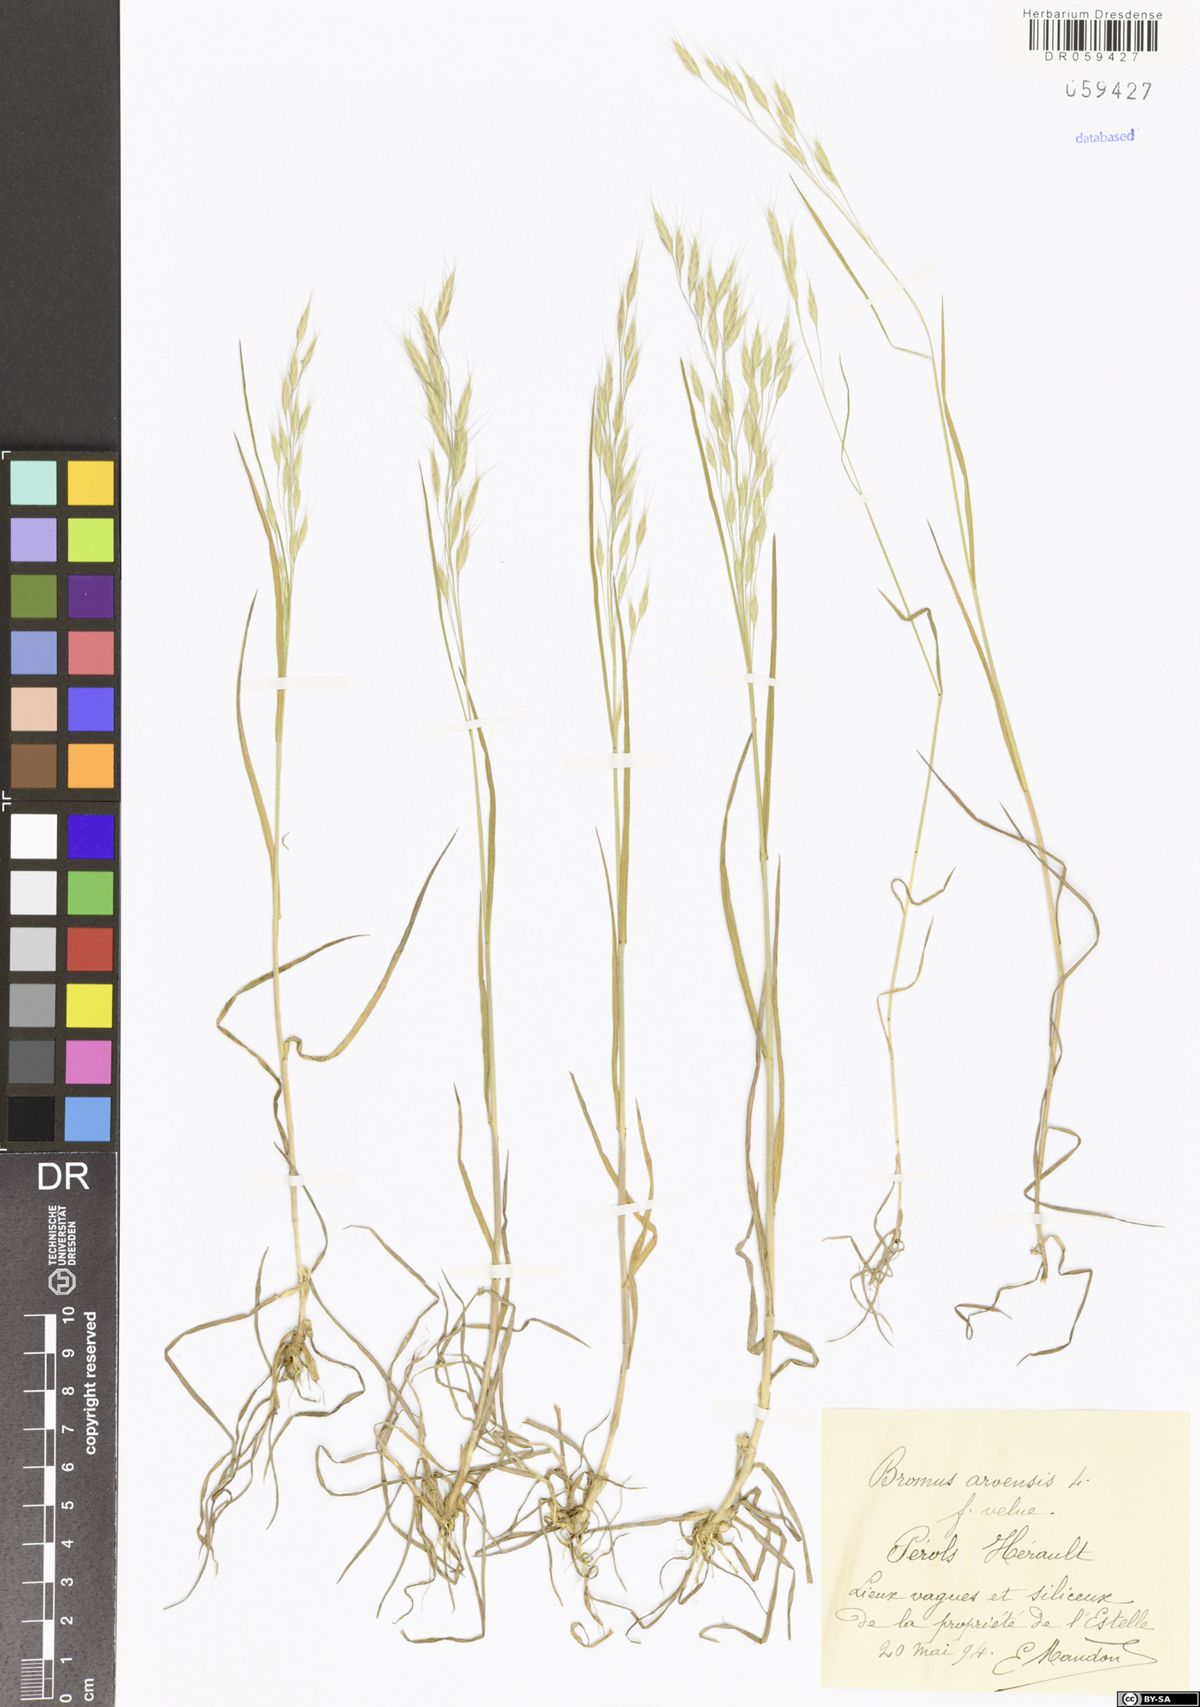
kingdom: Plantae
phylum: Tracheophyta
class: Liliopsida
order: Poales
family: Poaceae
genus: Bromus
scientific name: Bromus arvensis
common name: Field brome
